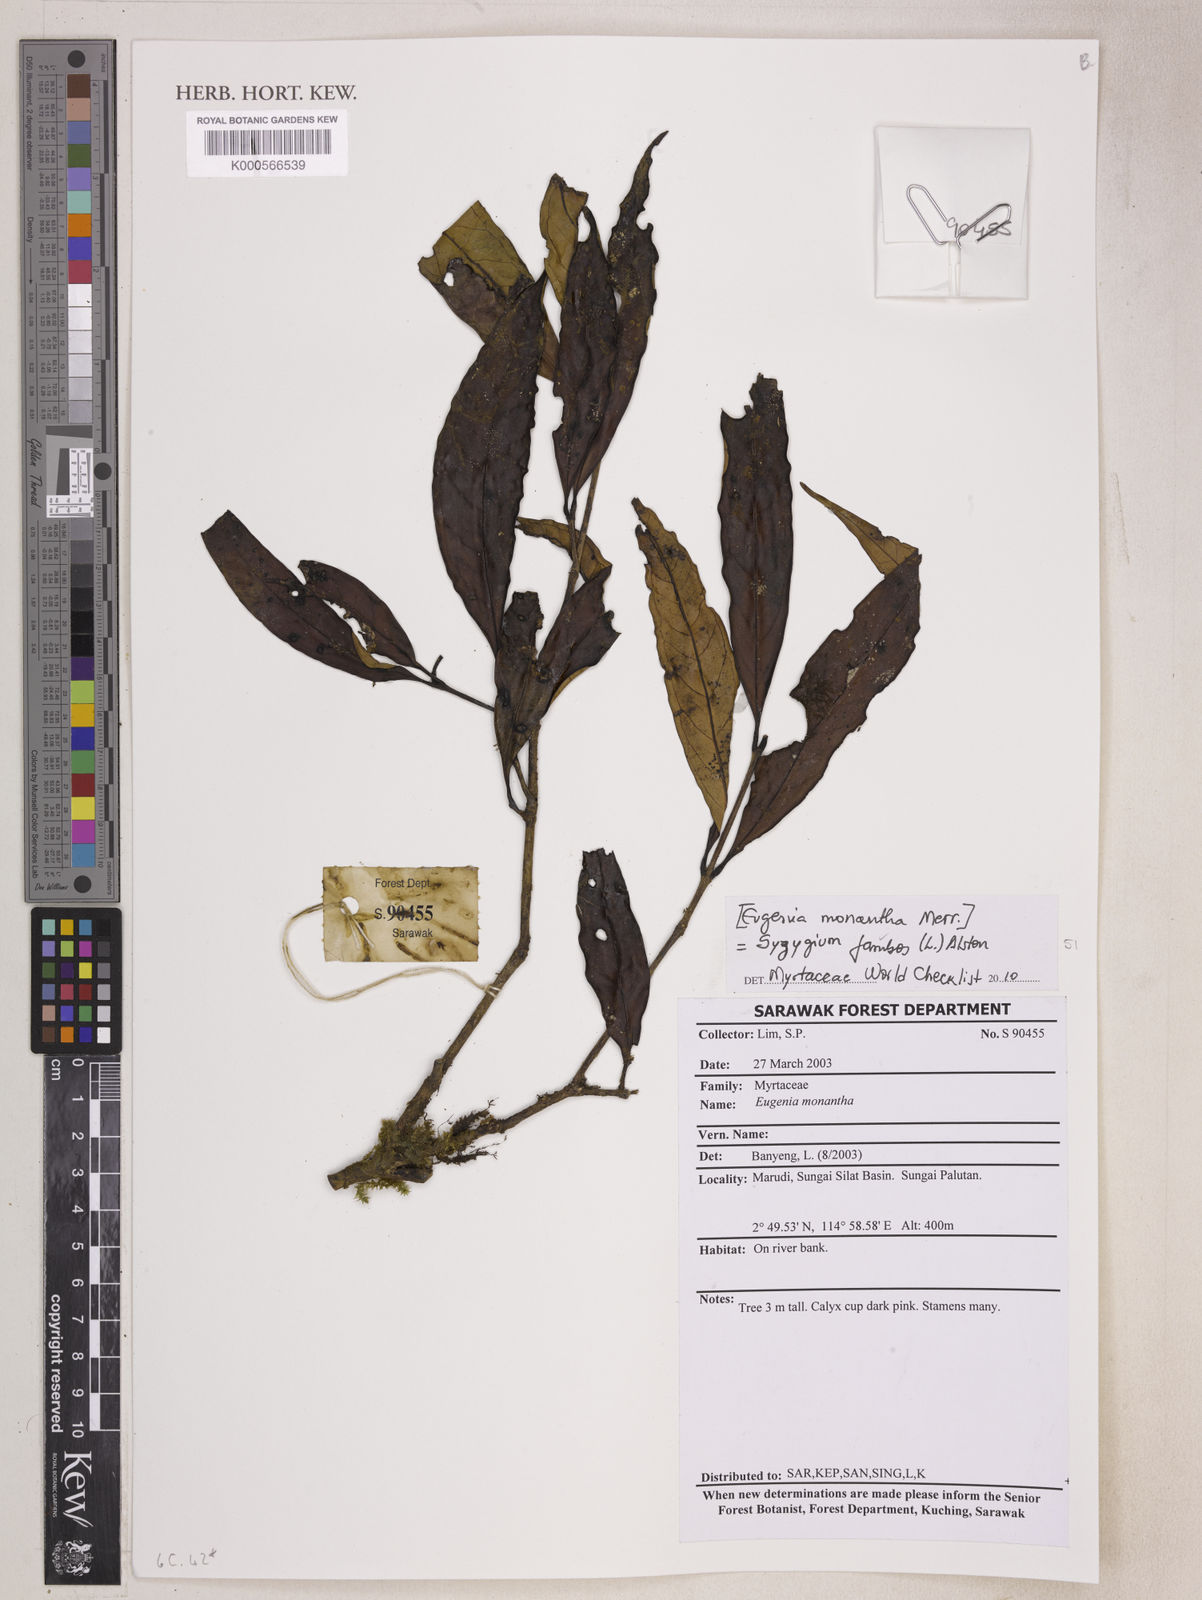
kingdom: Plantae
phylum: Tracheophyta
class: Magnoliopsida
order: Myrtales
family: Myrtaceae
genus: Syzygium
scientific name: Syzygium jambos
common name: Malabar plum
